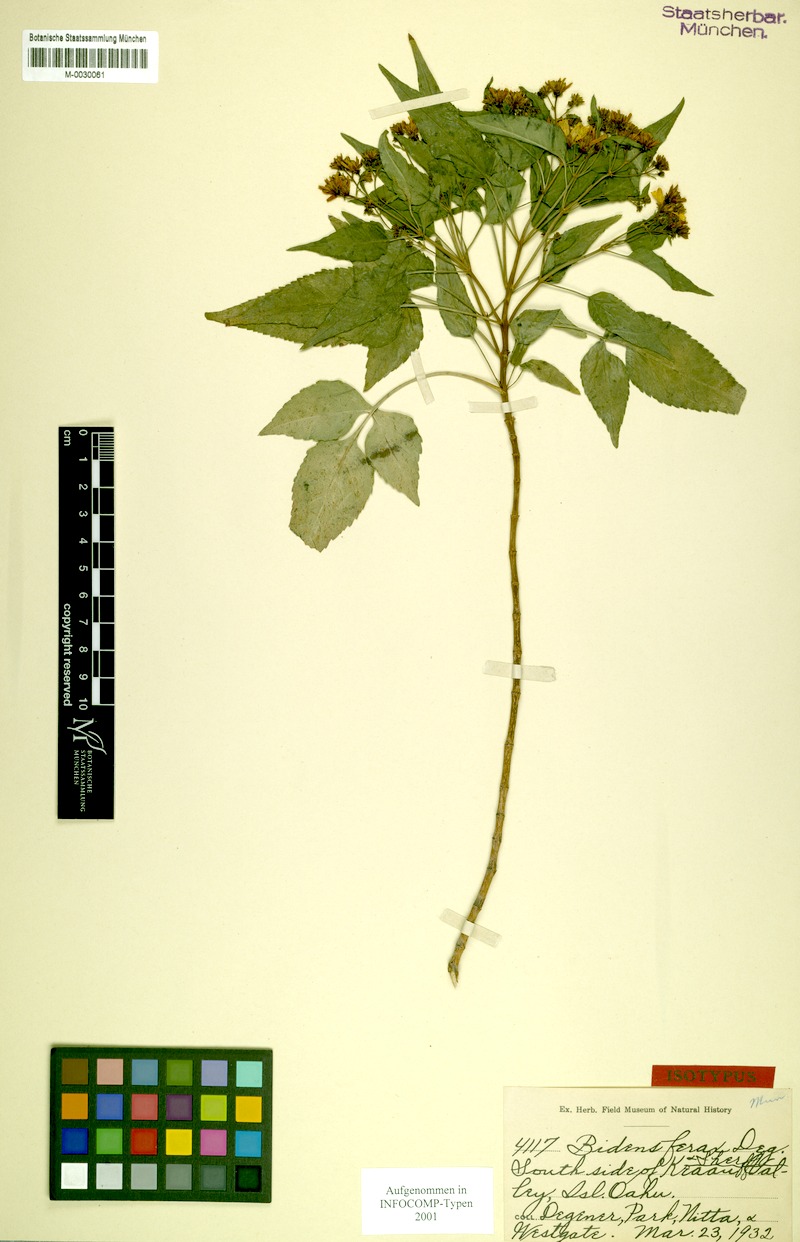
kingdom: Plantae
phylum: Tracheophyta
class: Magnoliopsida
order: Asterales
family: Asteraceae
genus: Bidens
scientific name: Bidens cervicata
